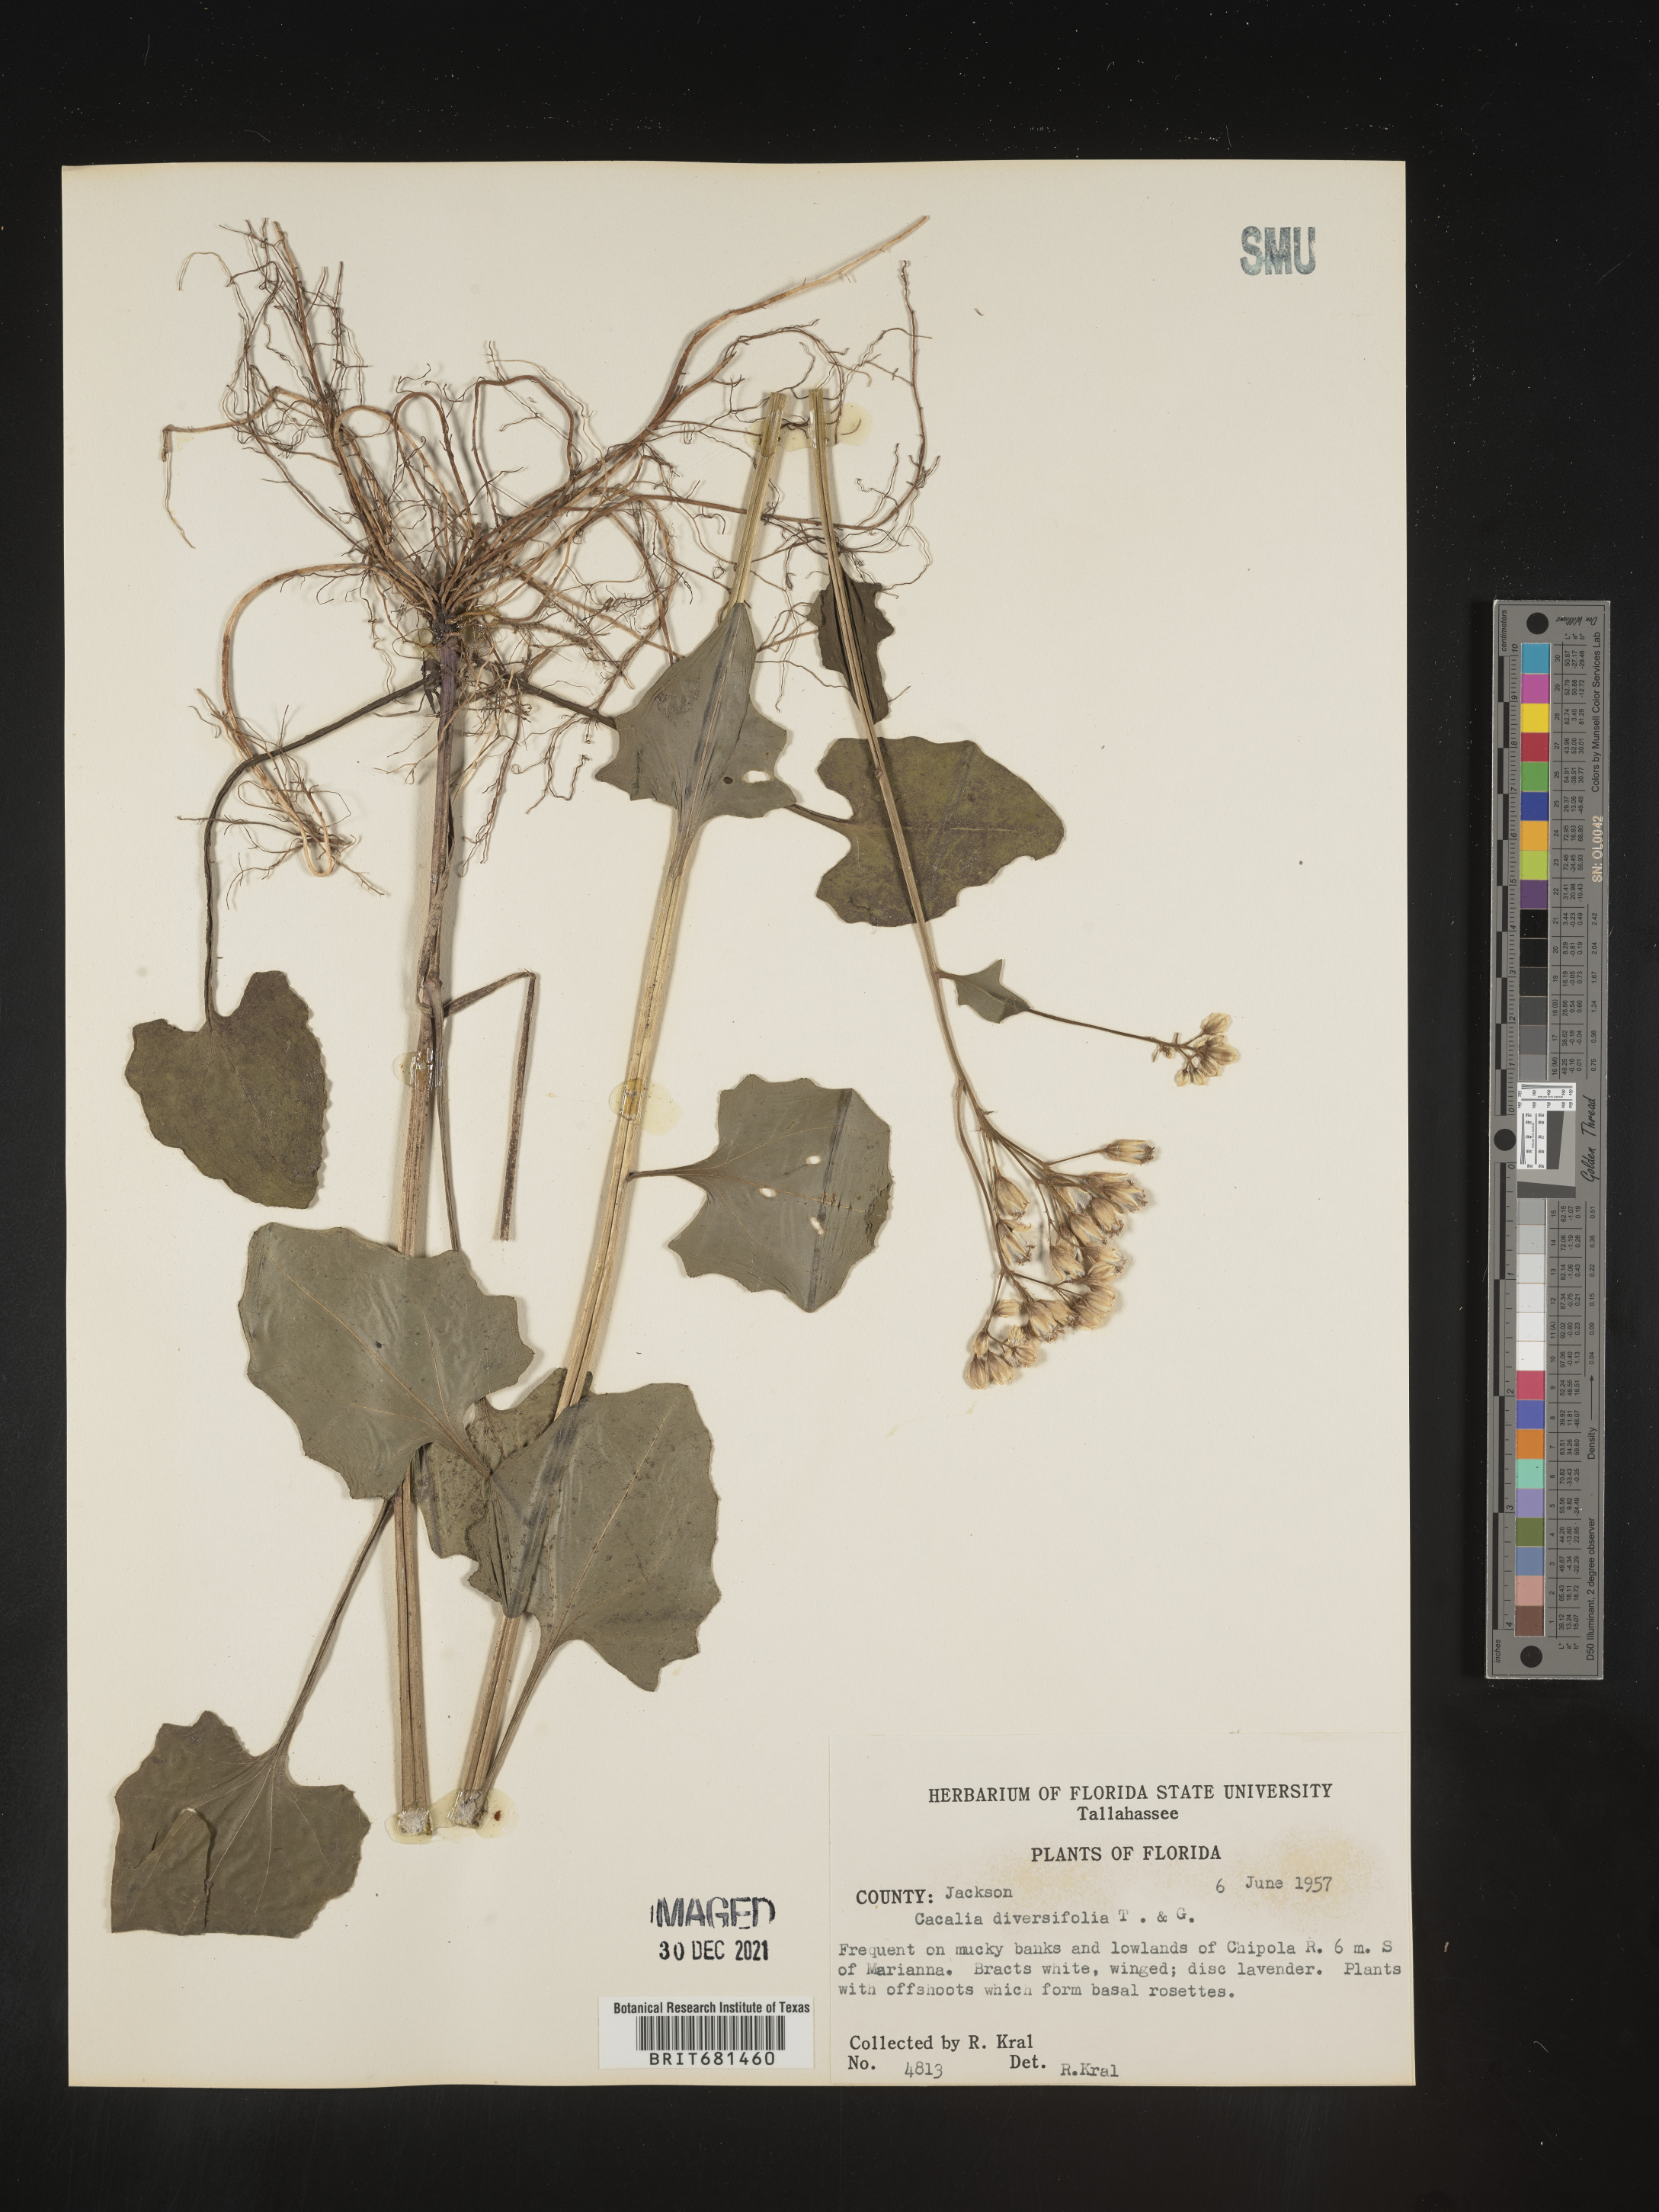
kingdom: Plantae
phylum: Tracheophyta
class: Magnoliopsida
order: Asterales
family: Asteraceae
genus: Arnoglossum
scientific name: Arnoglossum diversifolium
